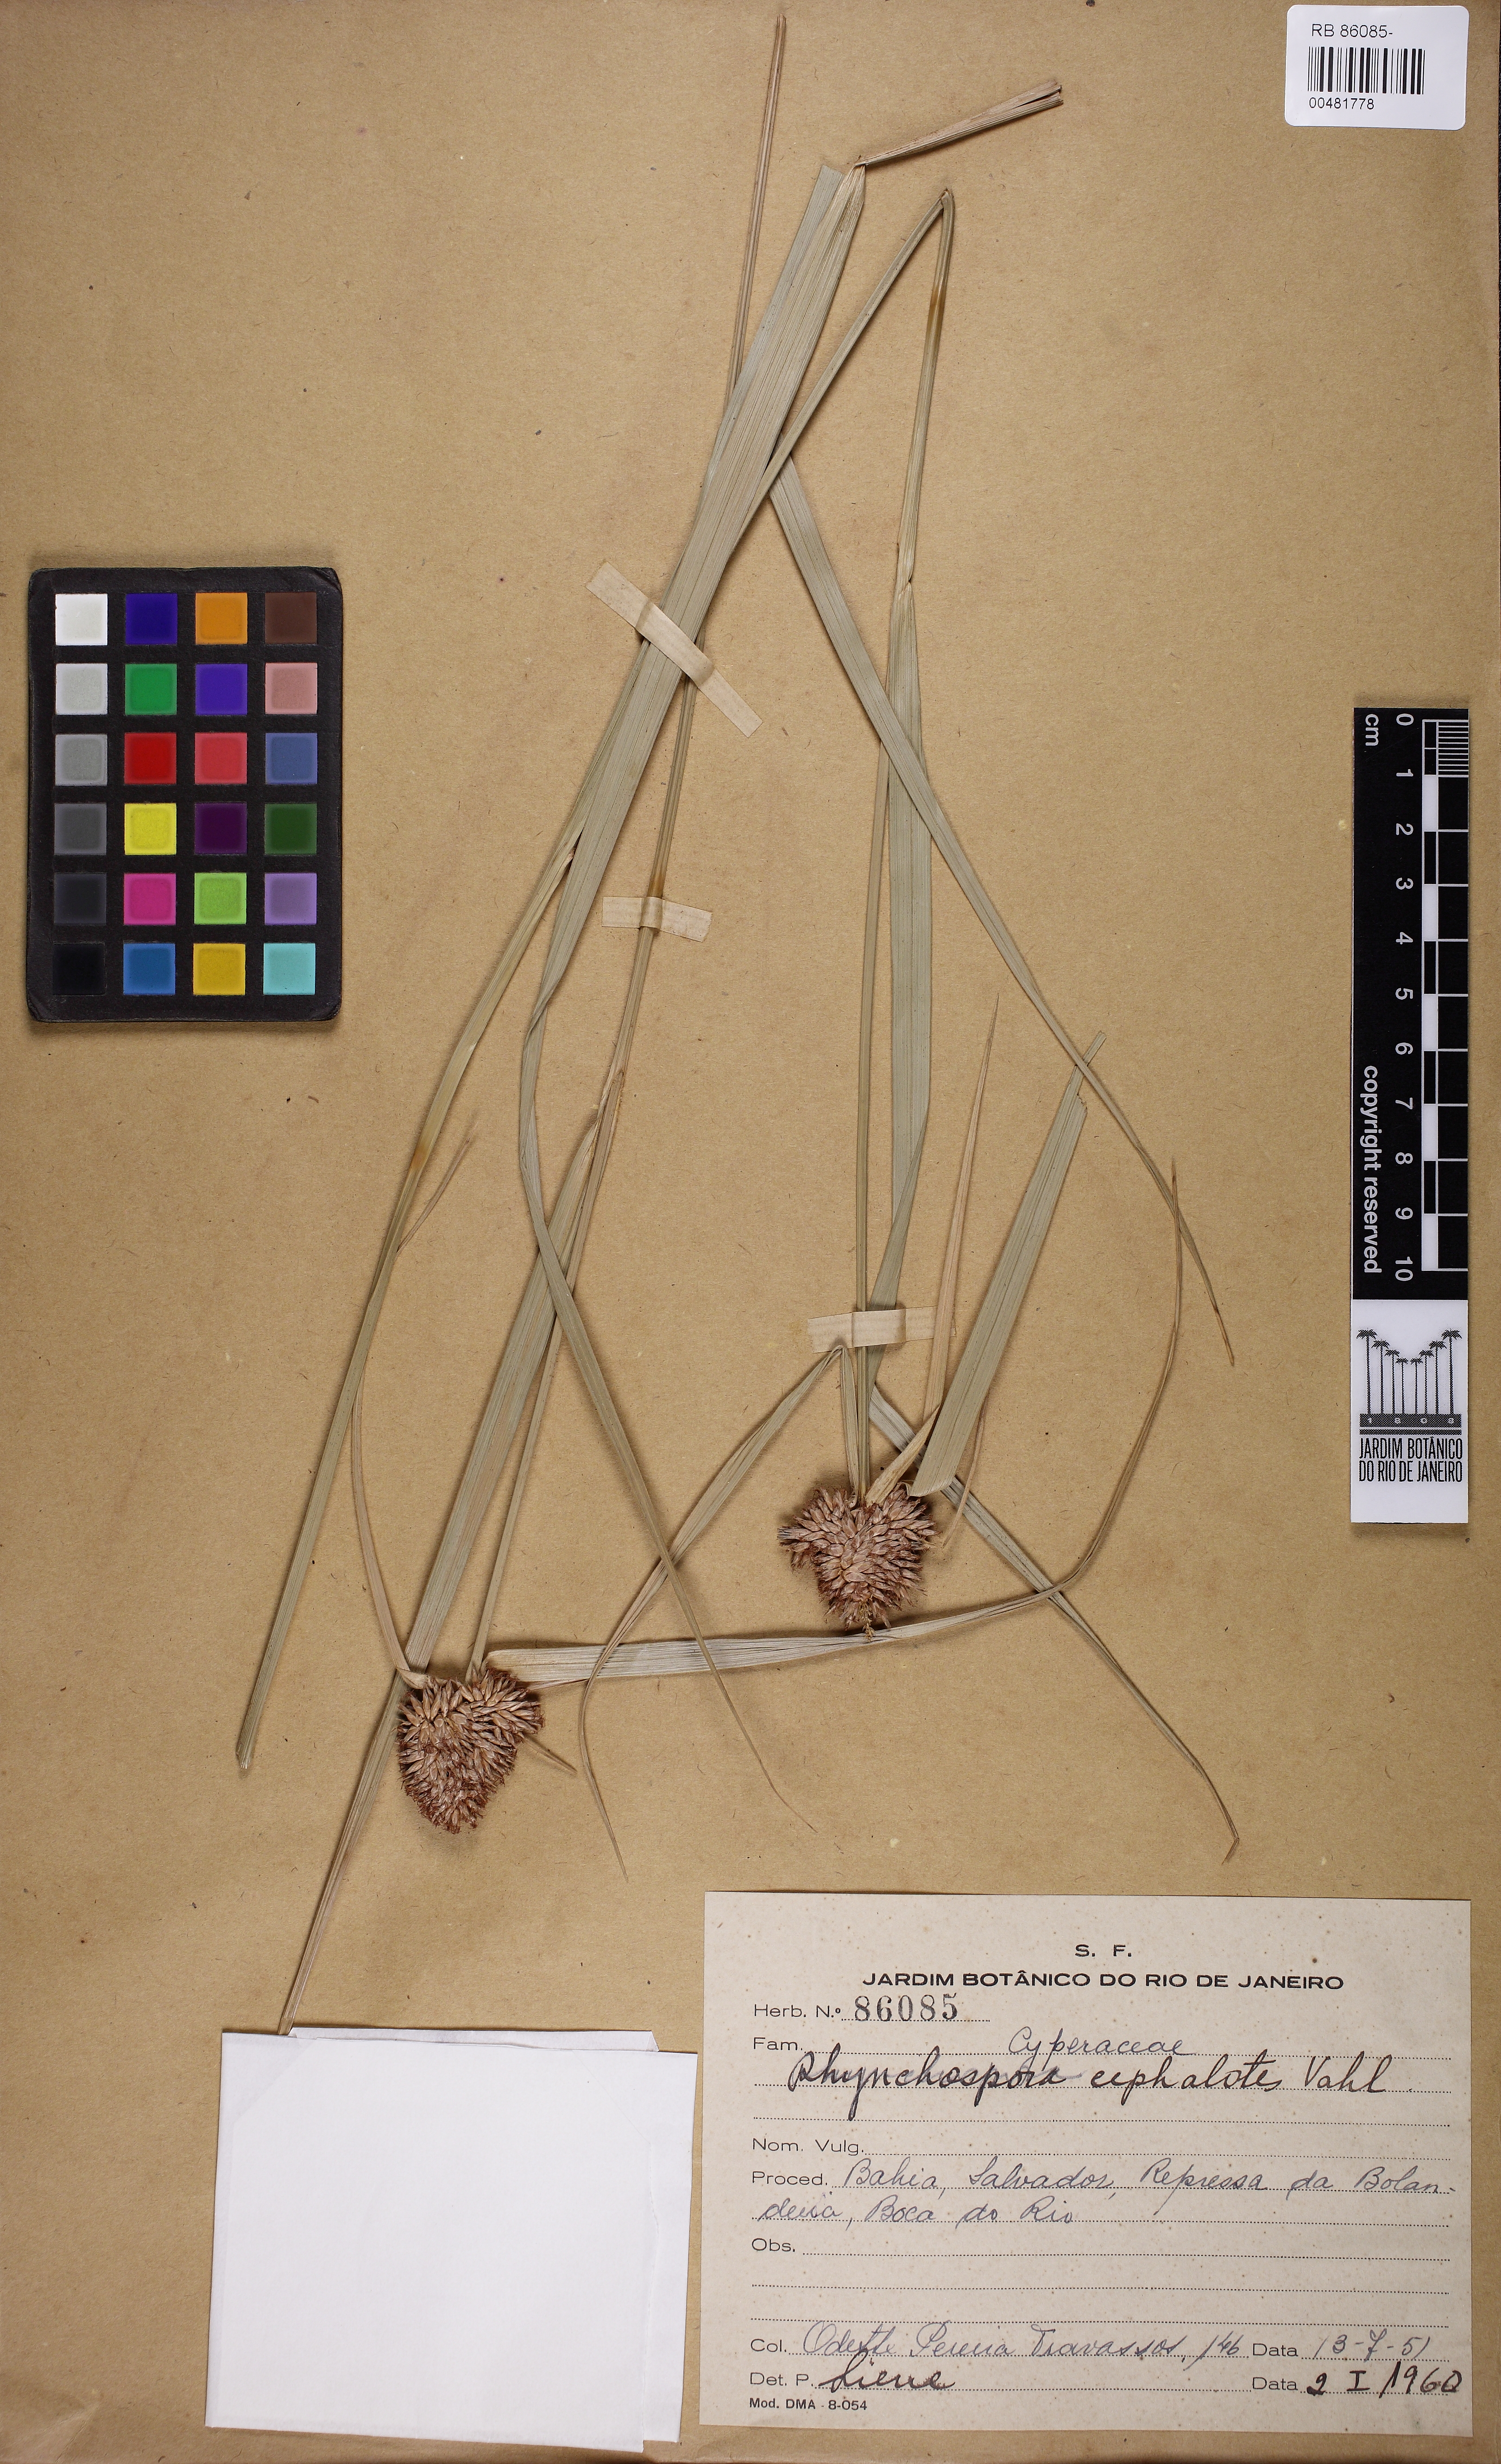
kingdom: Plantae
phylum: Tracheophyta
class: Liliopsida
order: Poales
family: Cyperaceae
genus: Rhynchospora
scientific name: Rhynchospora cephalotes
